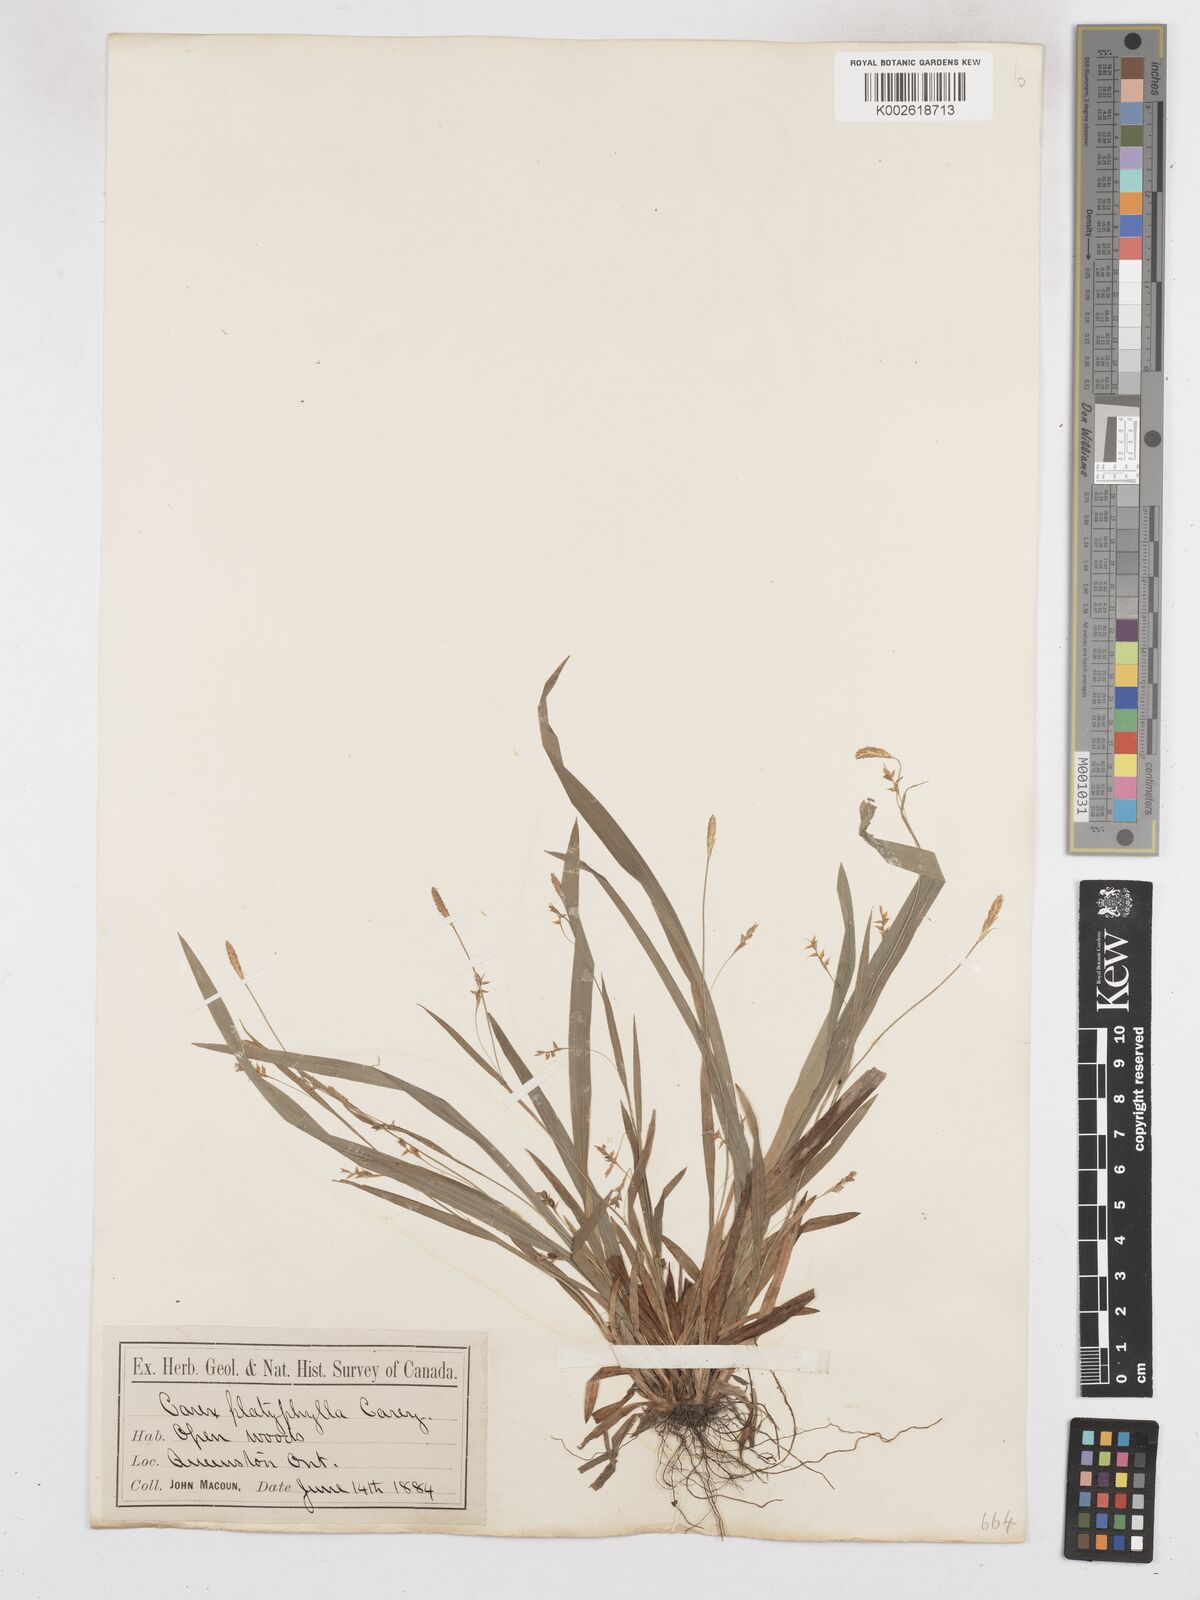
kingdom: Plantae
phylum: Tracheophyta
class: Liliopsida
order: Poales
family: Cyperaceae
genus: Carex
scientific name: Carex platyphylla
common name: Broad-leaved sedge
